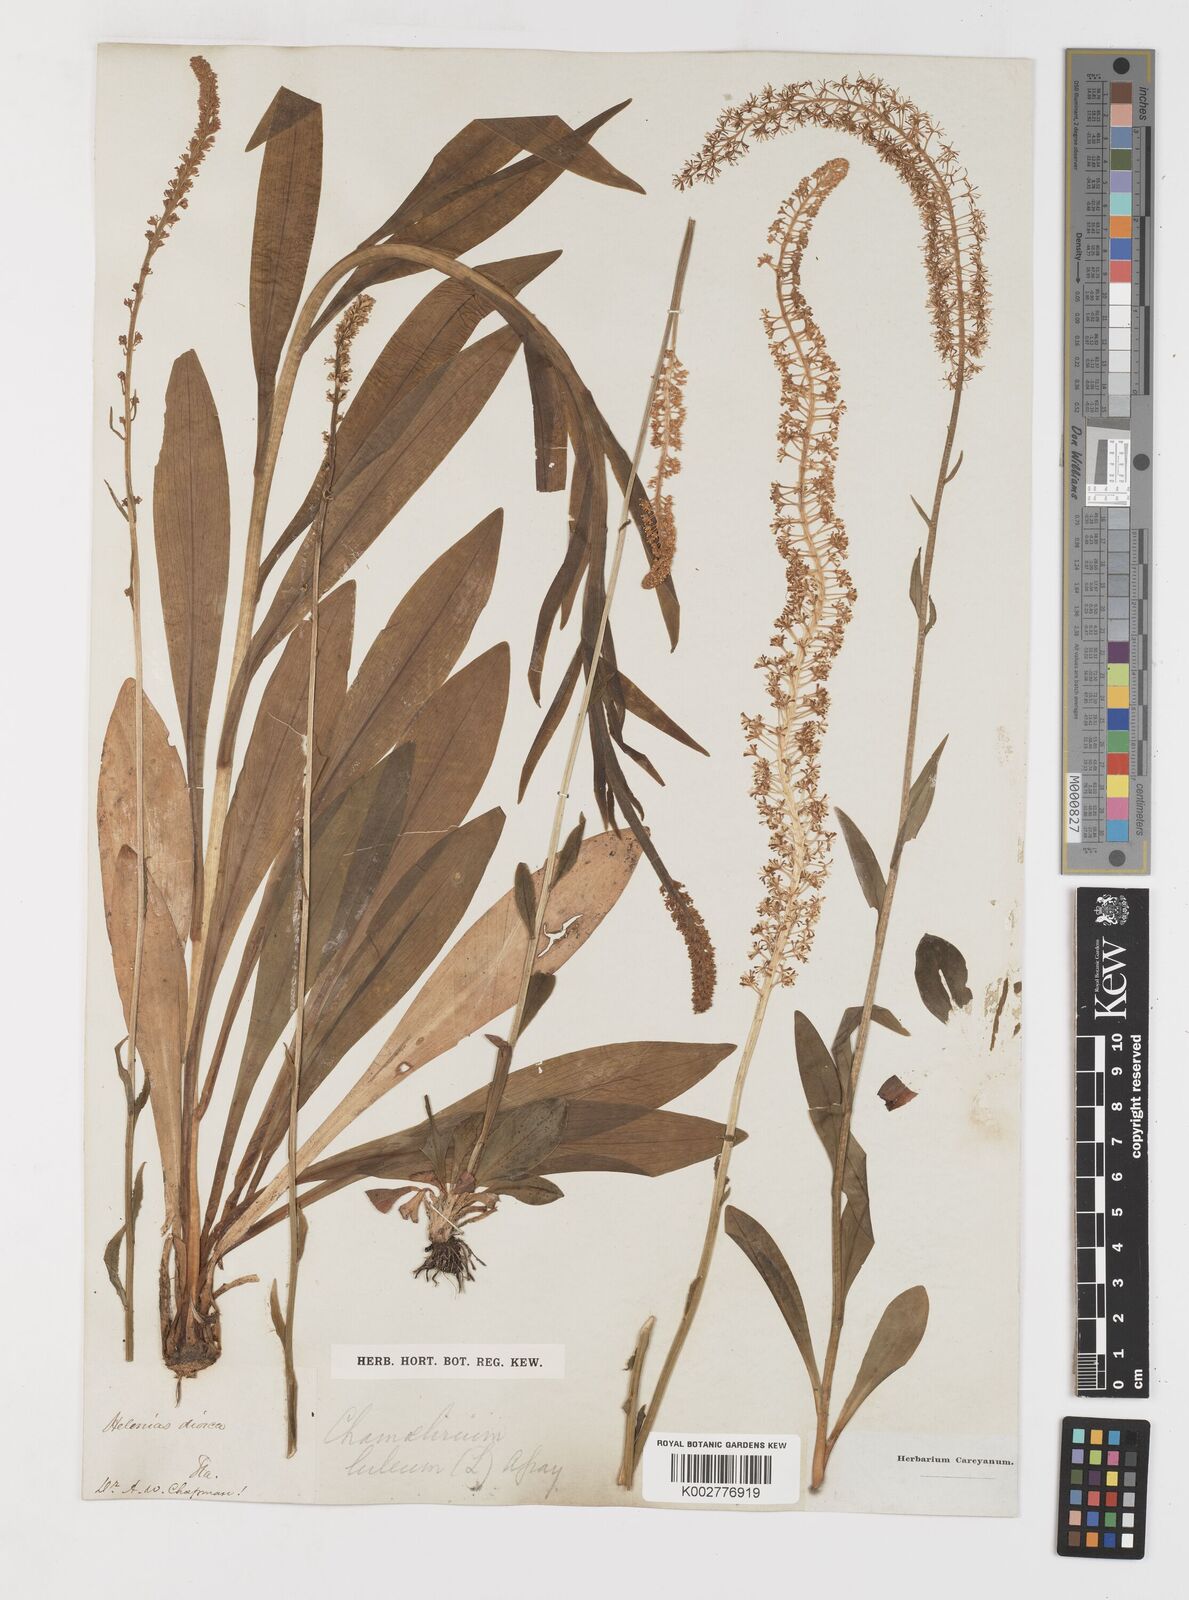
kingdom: Plantae
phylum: Tracheophyta
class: Liliopsida
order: Liliales
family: Melanthiaceae
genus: Chamaelirium
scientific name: Chamaelirium luteum
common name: Fairy-wand
